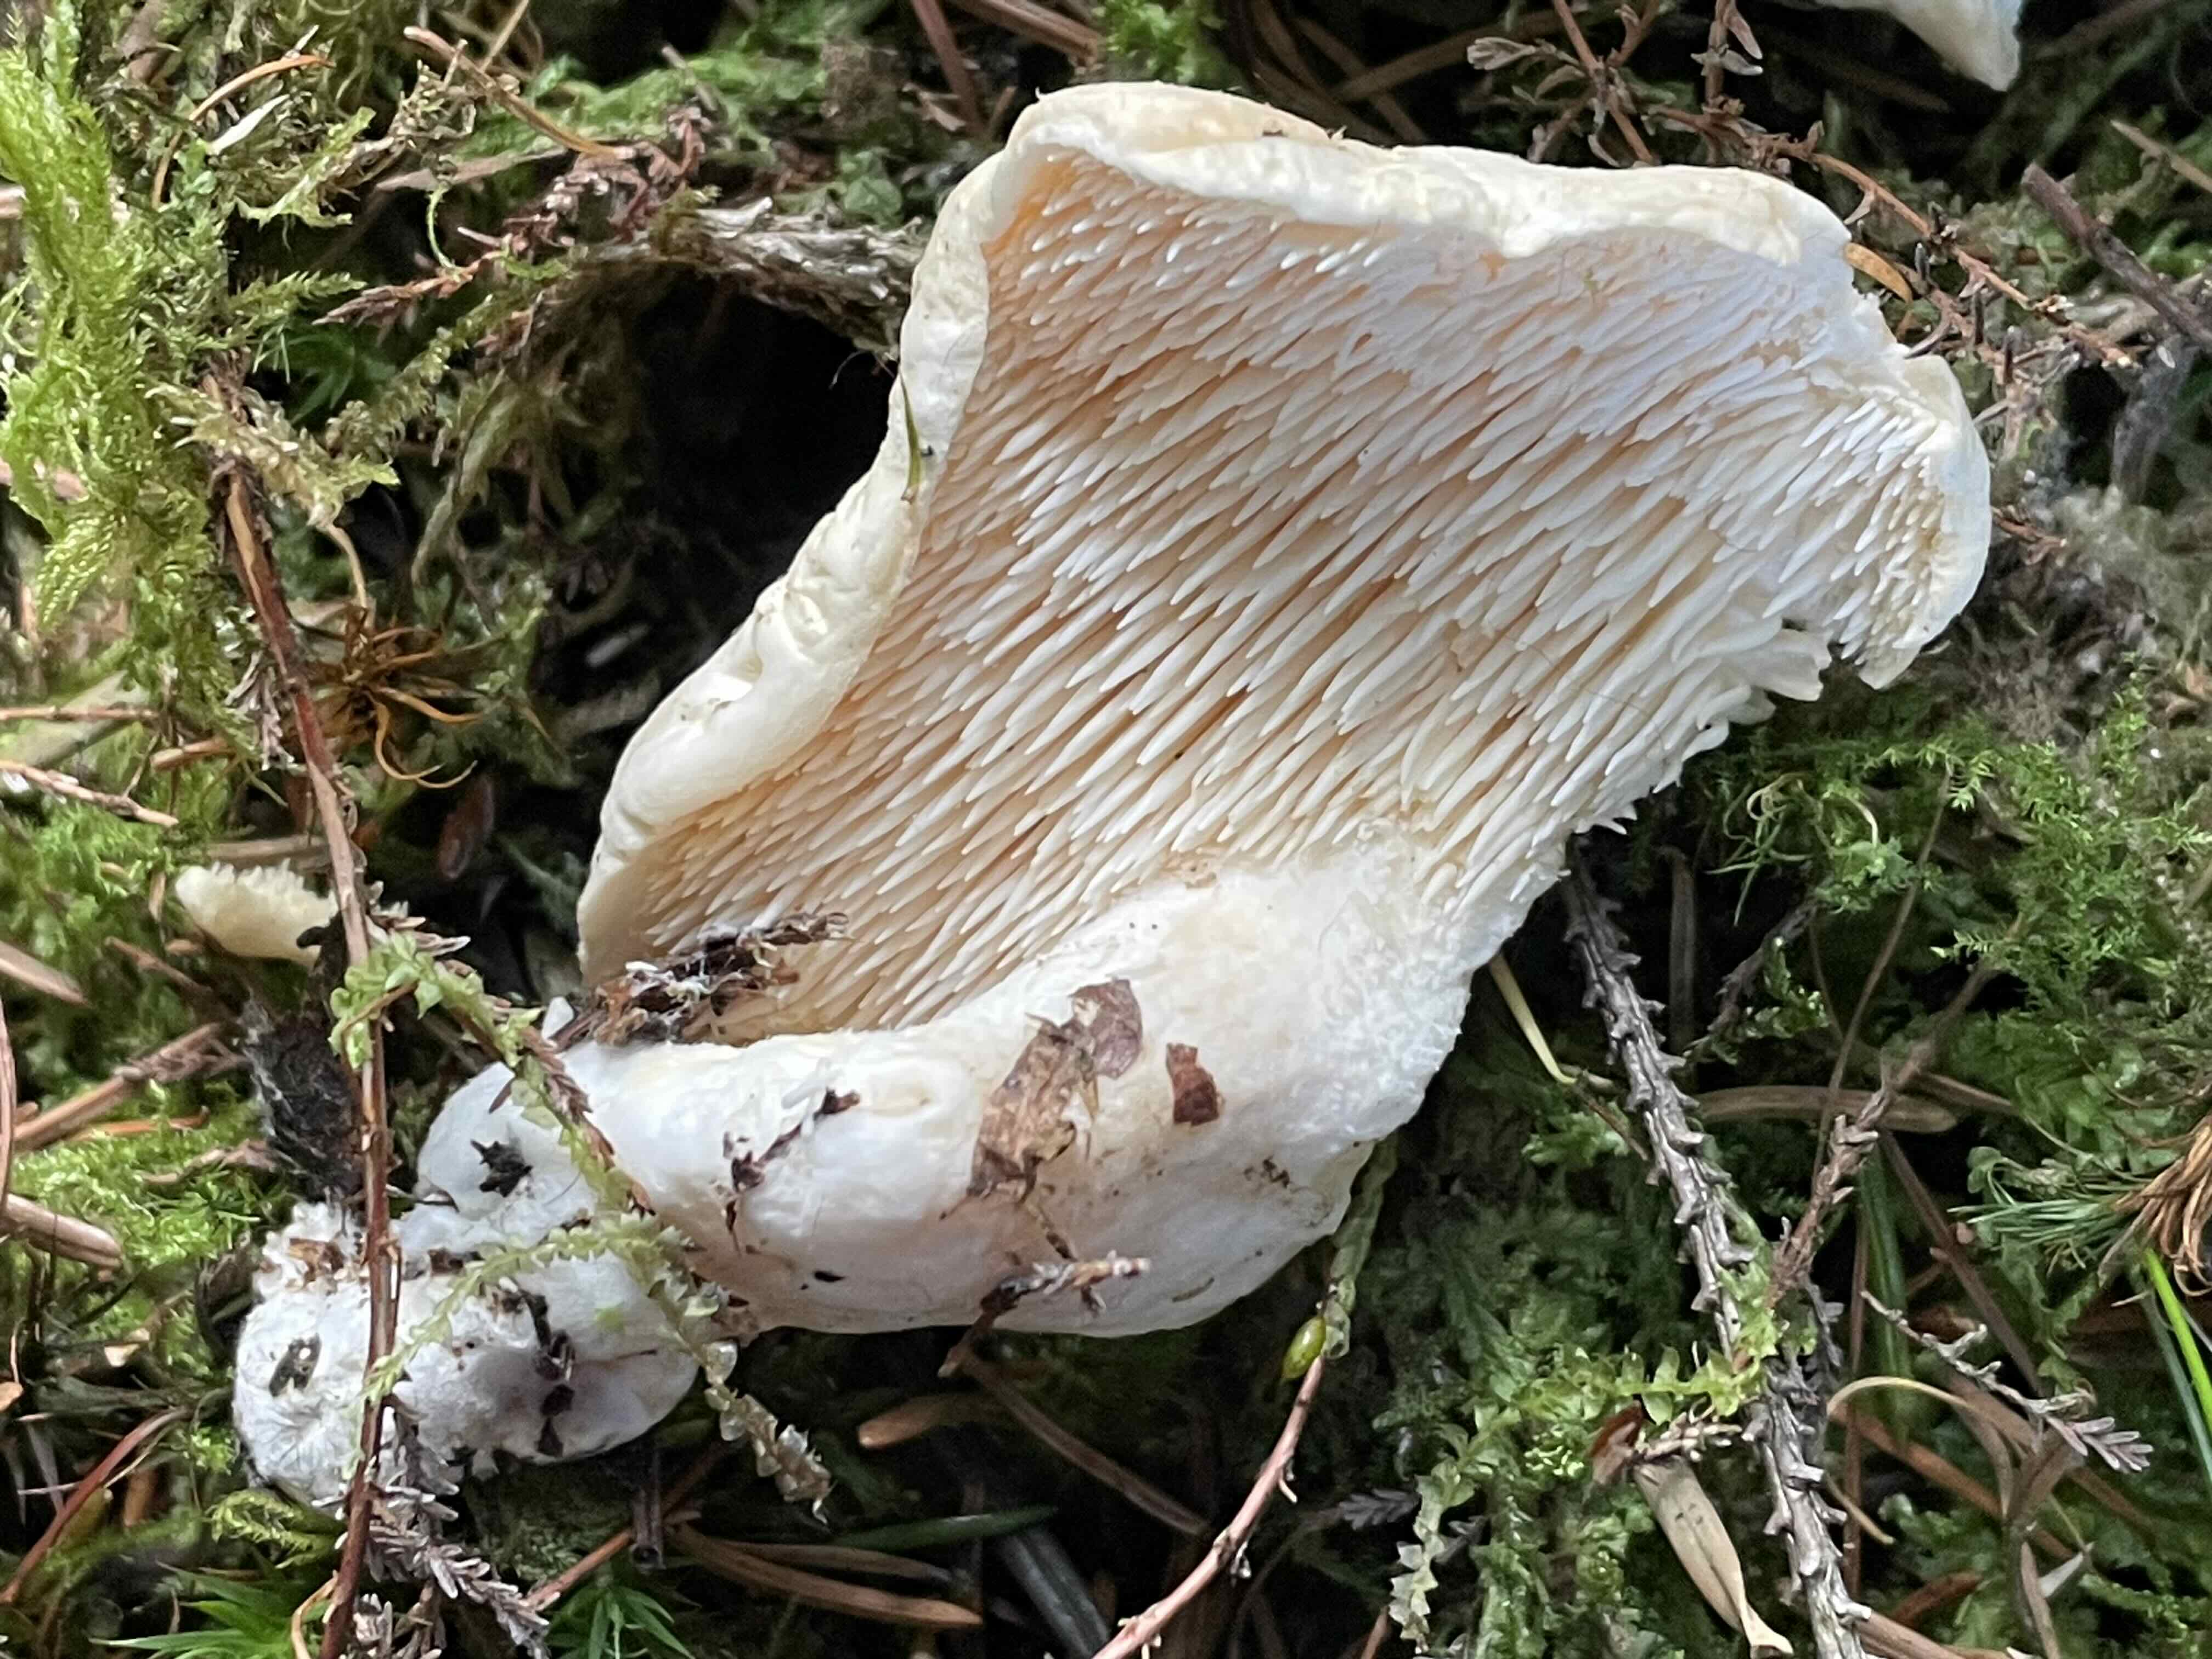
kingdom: Fungi
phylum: Basidiomycota
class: Agaricomycetes
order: Cantharellales
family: Hydnaceae
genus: Hydnum
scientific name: Hydnum repandum
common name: almindelig pigsvamp
